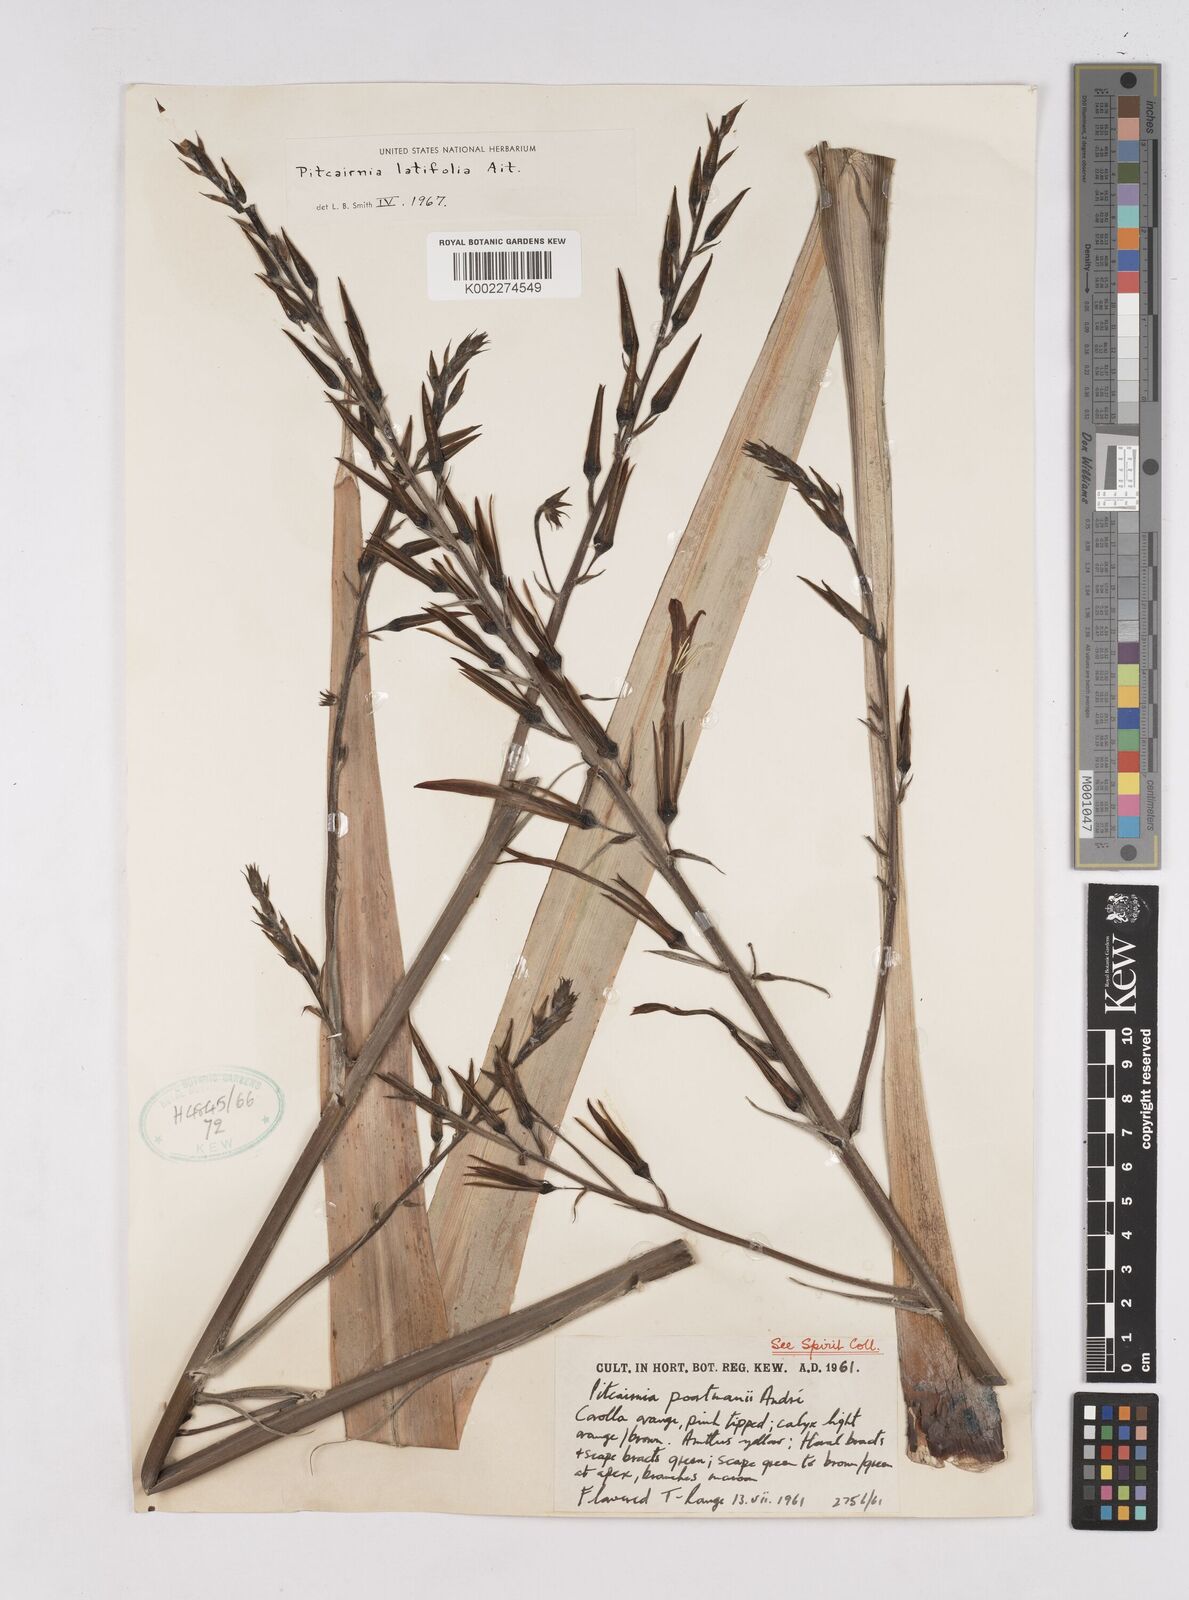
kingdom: Plantae
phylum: Tracheophyta
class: Liliopsida
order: Poales
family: Bromeliaceae
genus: Pitcairnia
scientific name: Pitcairnia angustifolia
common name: Clapper
